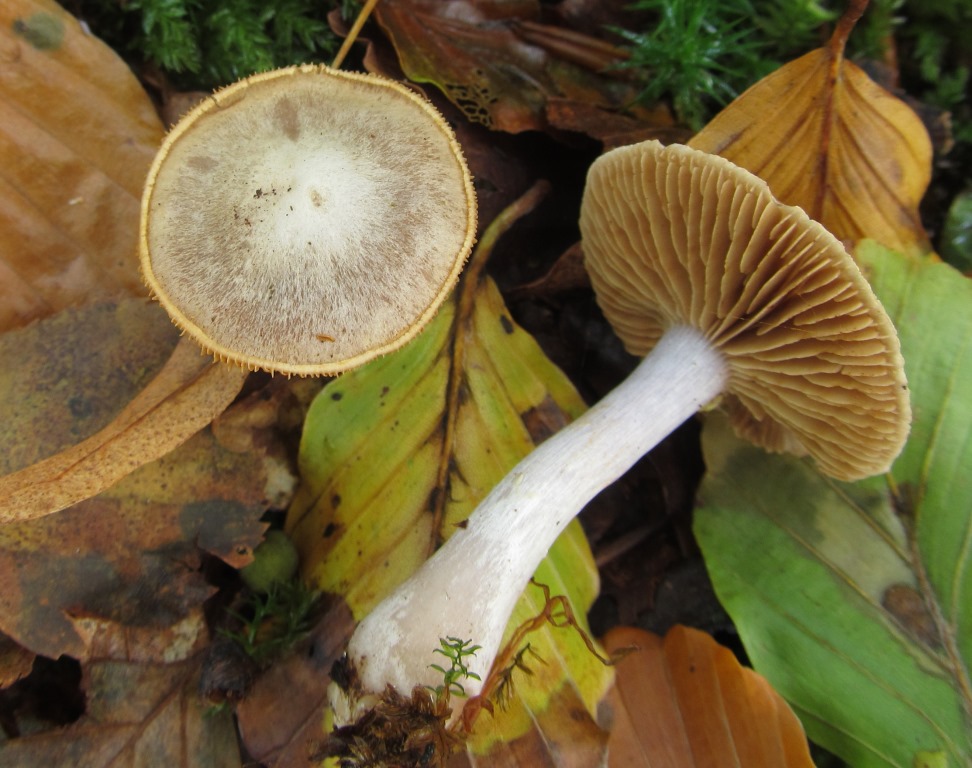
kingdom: Fungi
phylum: Basidiomycota
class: Agaricomycetes
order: Agaricales
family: Cortinariaceae
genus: Cortinarius
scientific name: Cortinarius alboviolaceus
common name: lysviolet slørhat
